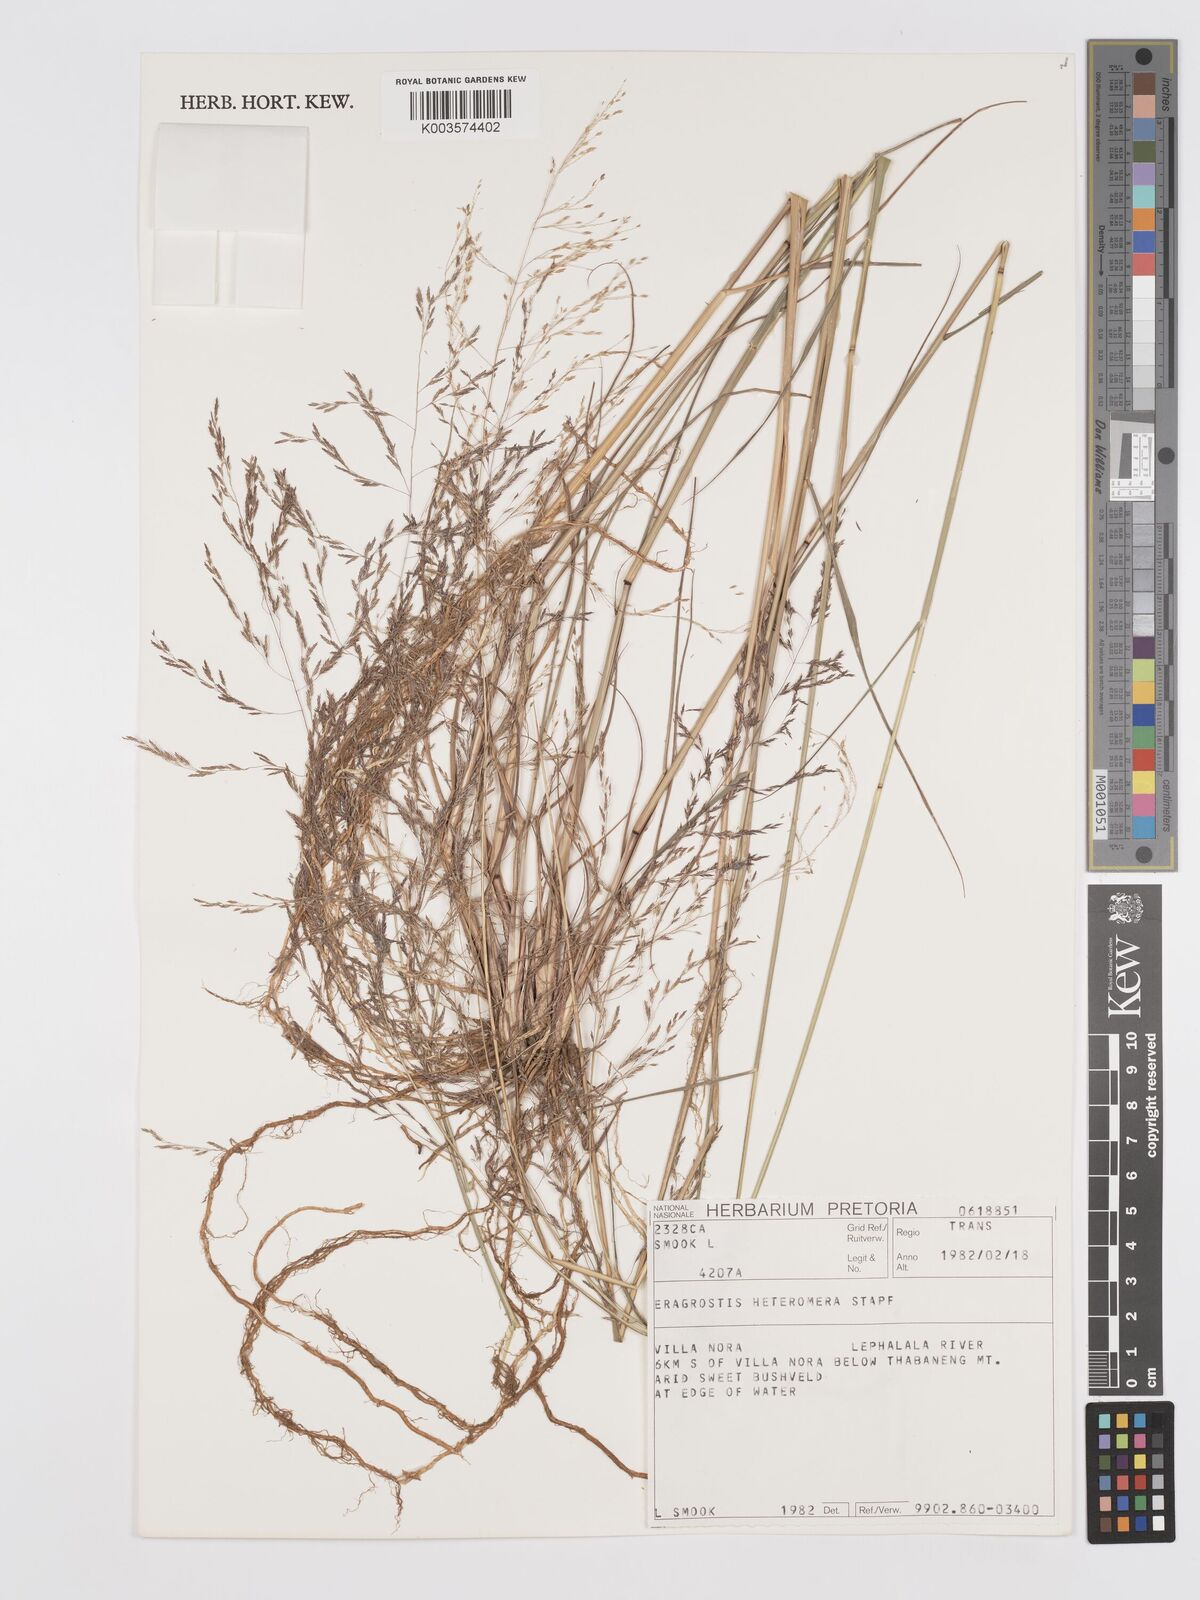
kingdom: Plantae
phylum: Tracheophyta
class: Liliopsida
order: Poales
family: Poaceae
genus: Eragrostis
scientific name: Eragrostis heteromera
